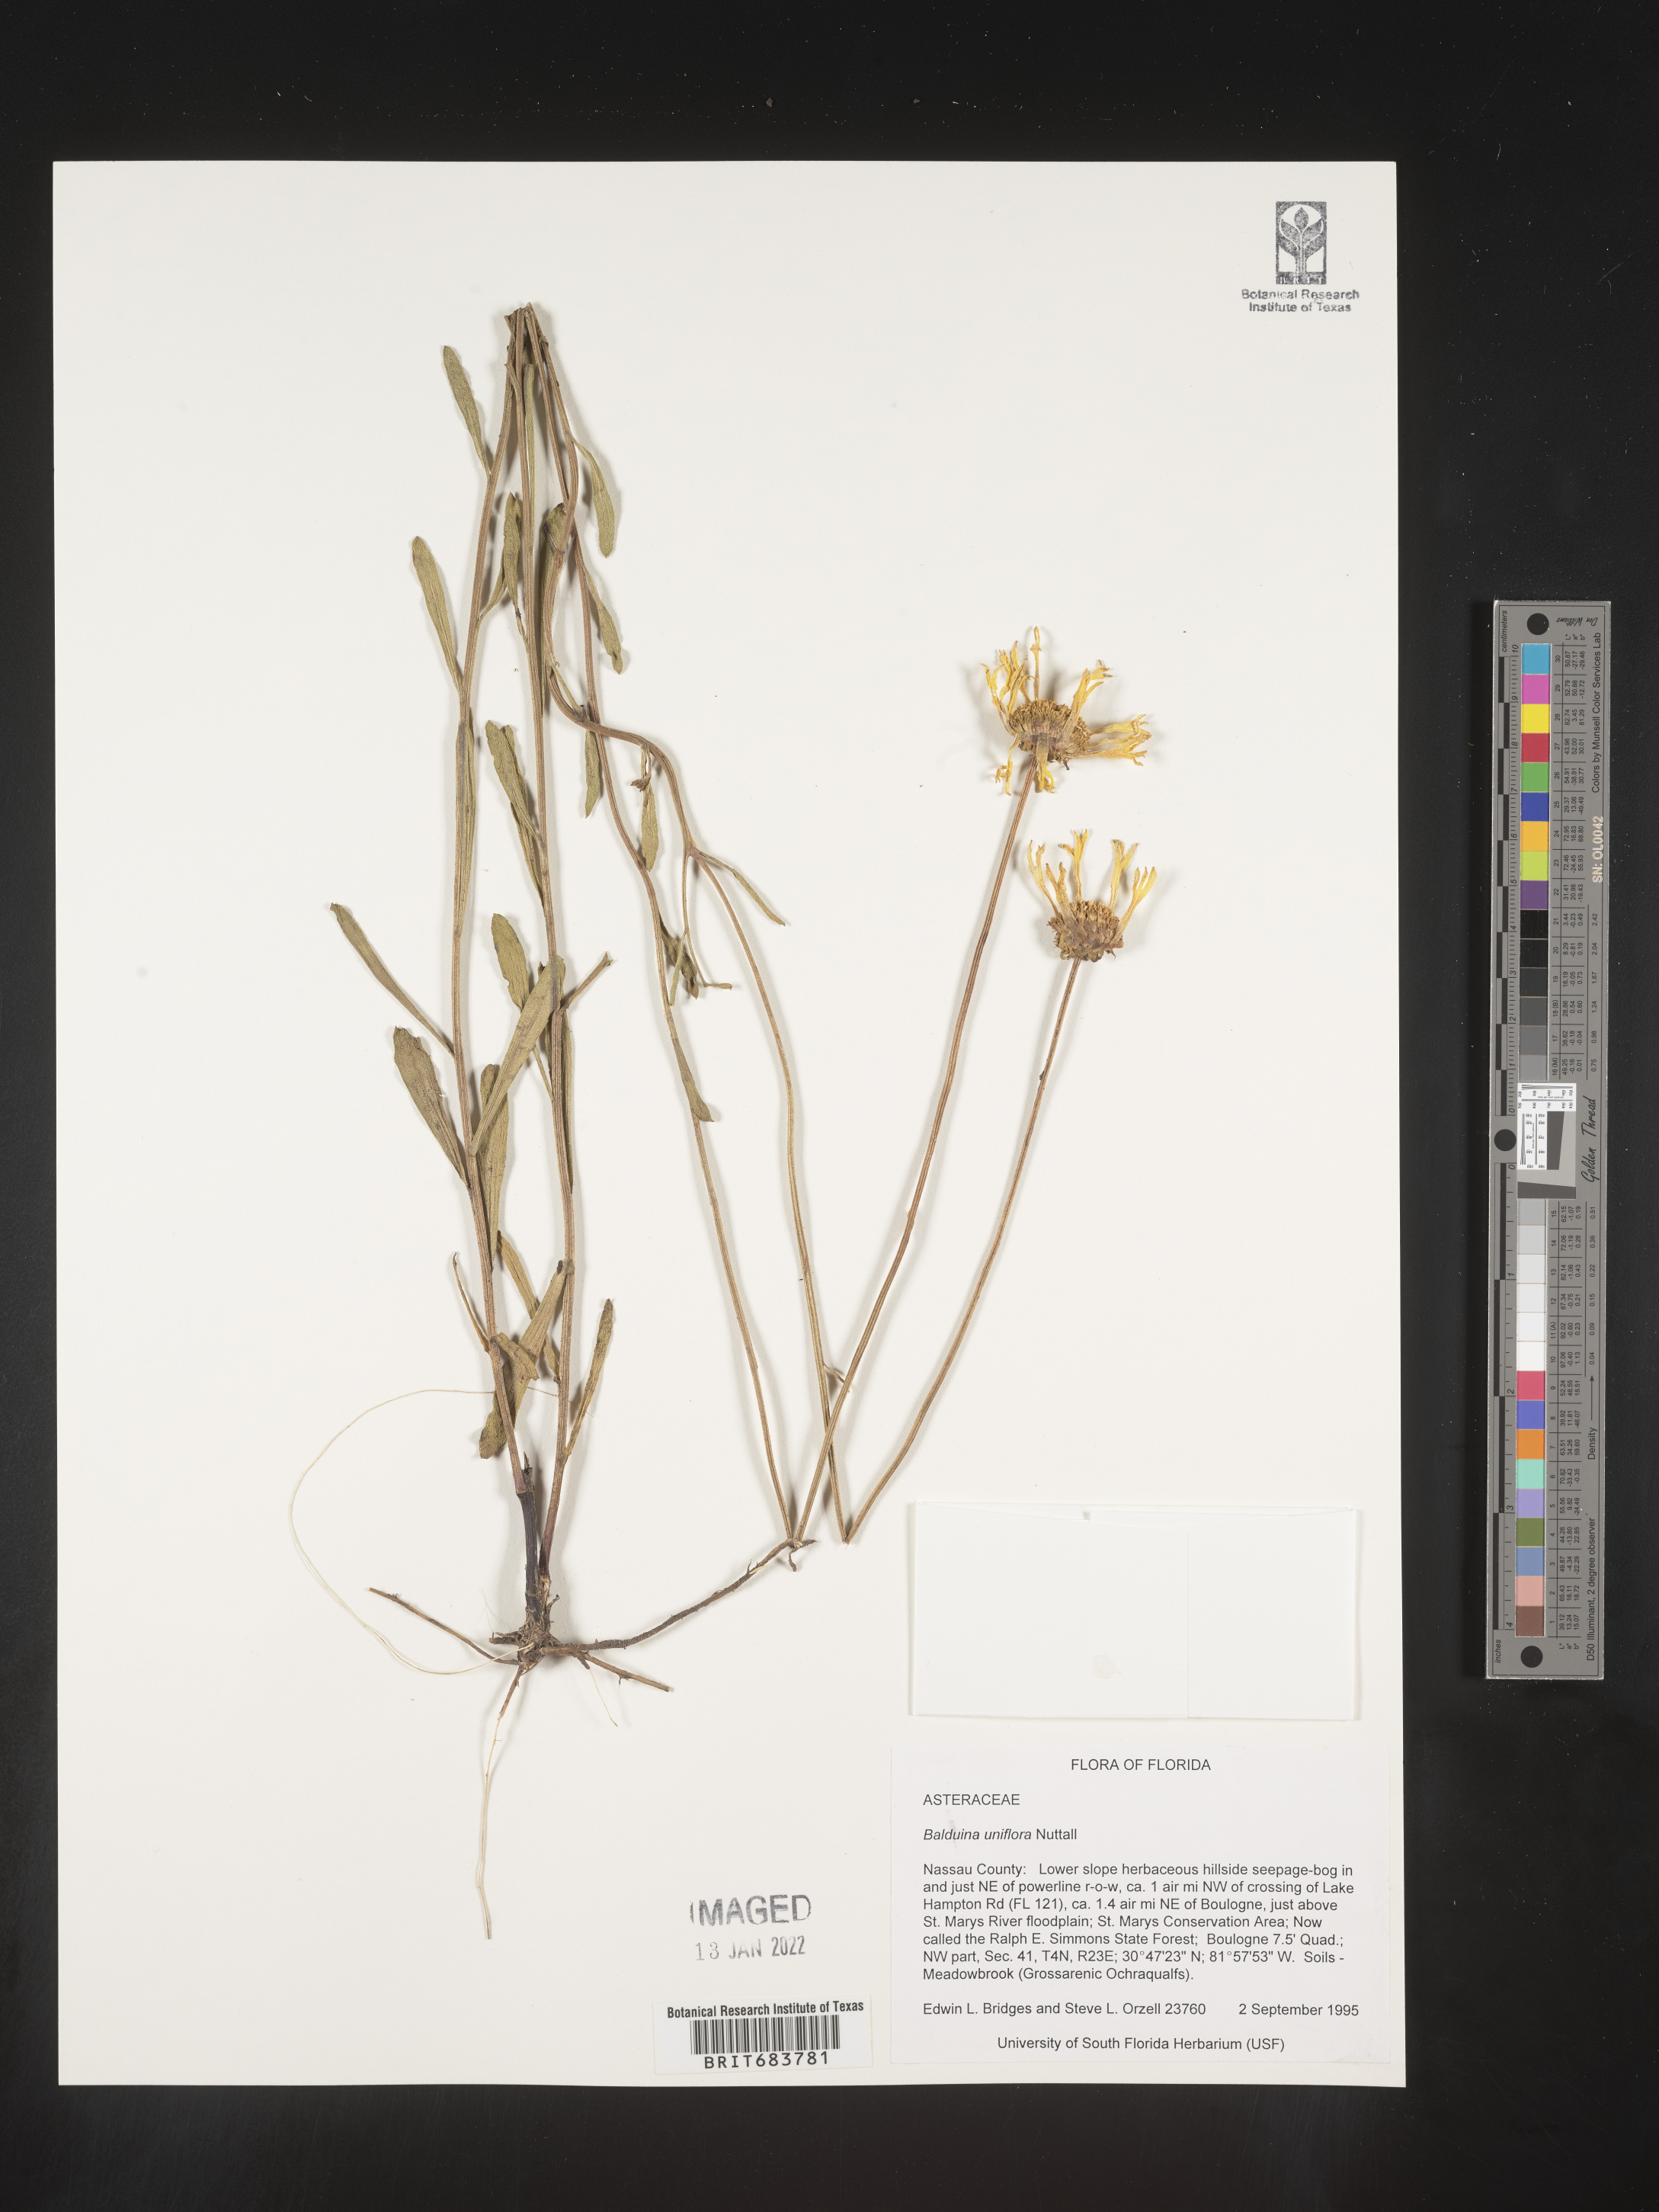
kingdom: Plantae
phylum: Tracheophyta
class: Magnoliopsida
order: Asterales
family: Asteraceae
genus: Balduina
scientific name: Balduina uniflora
